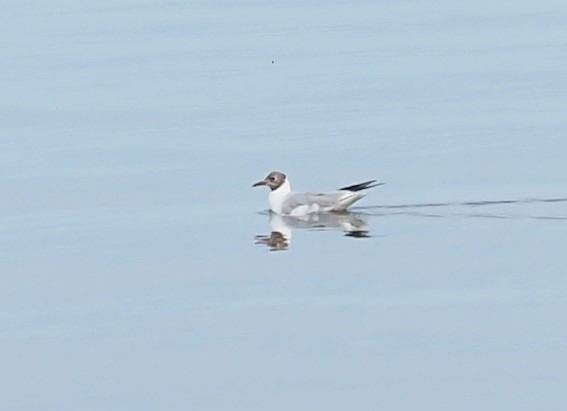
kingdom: Animalia
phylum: Chordata
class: Aves
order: Charadriiformes
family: Laridae
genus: Chroicocephalus
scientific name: Chroicocephalus ridibundus
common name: Hættemåge
